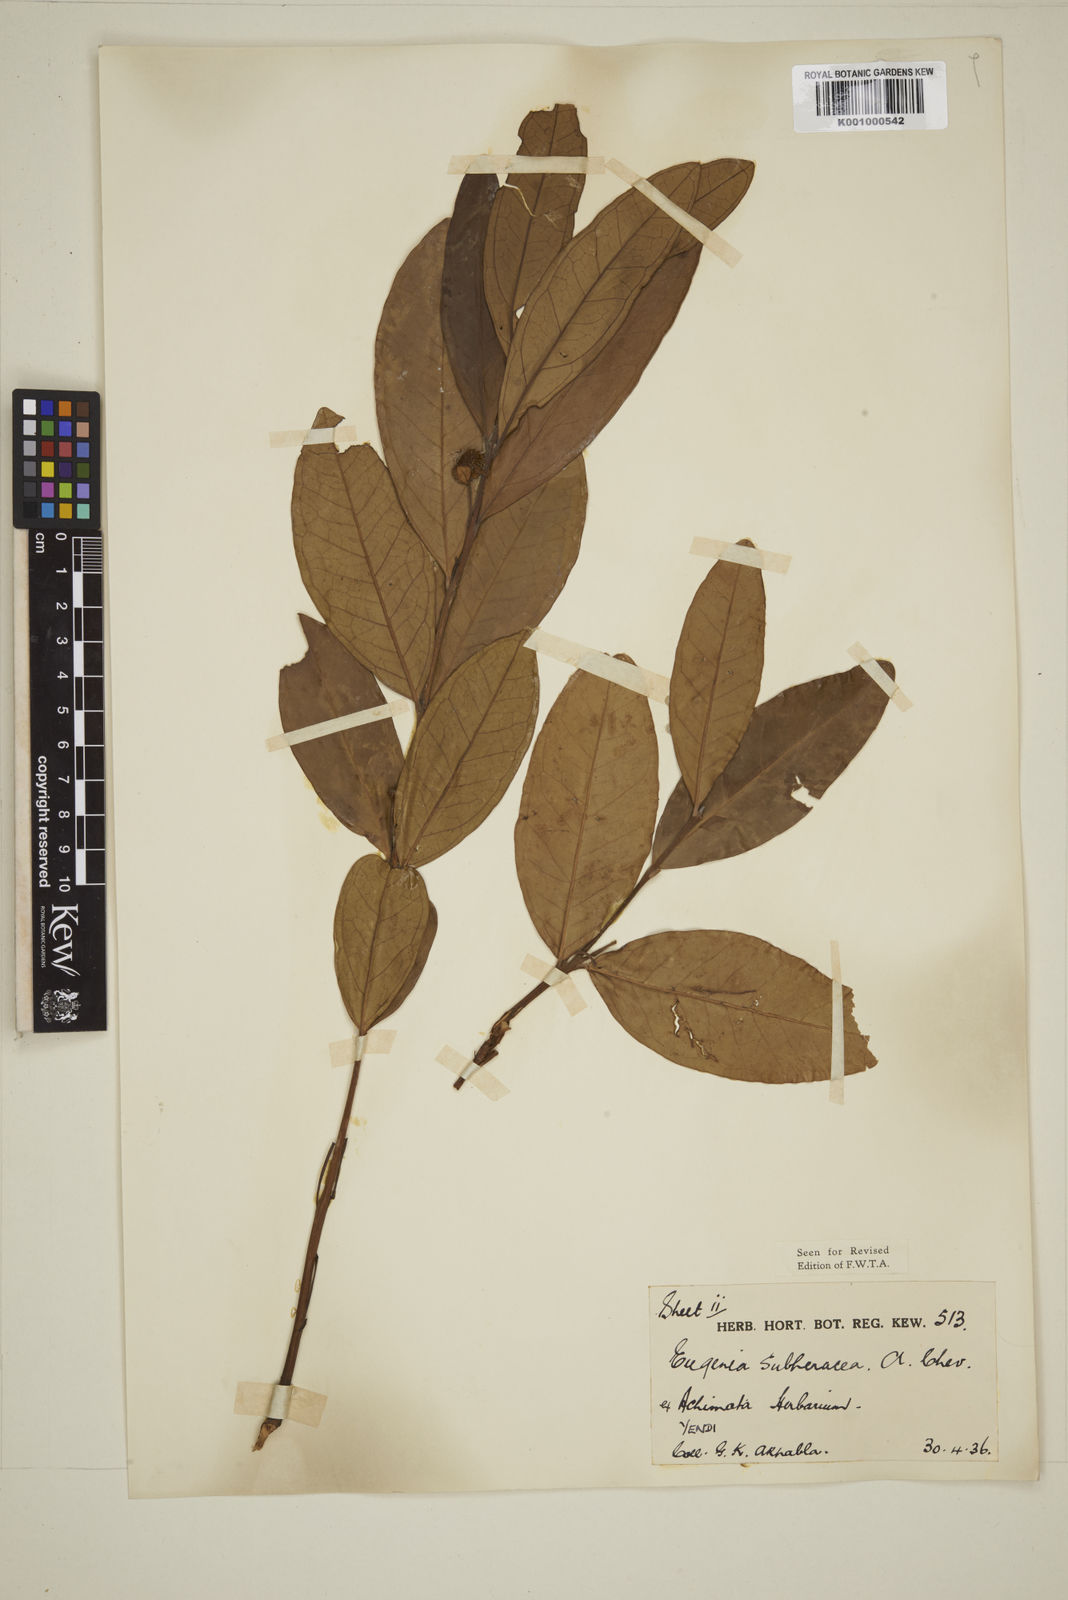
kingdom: Plantae
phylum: Tracheophyta
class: Magnoliopsida
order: Myrtales
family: Myrtaceae
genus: Eugenia
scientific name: Eugenia subherbacea
